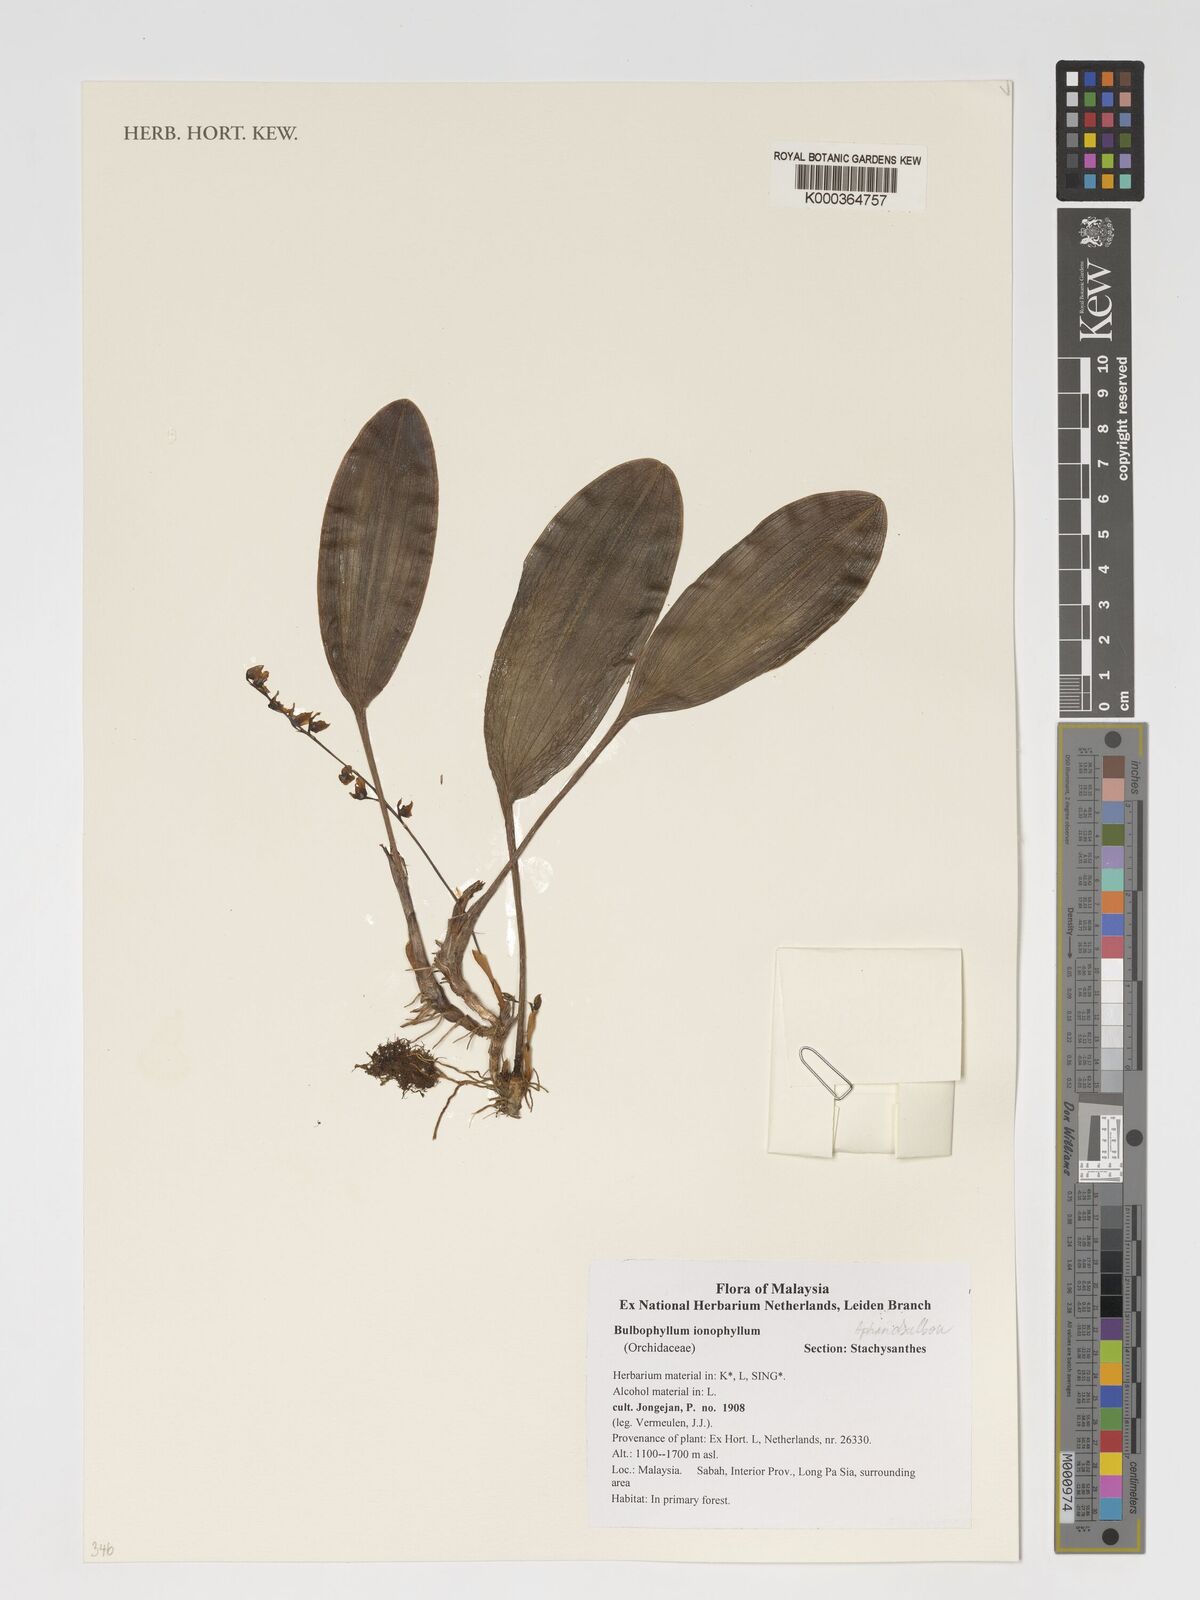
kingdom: Plantae
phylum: Tracheophyta
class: Liliopsida
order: Asparagales
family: Orchidaceae
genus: Bulbophyllum
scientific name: Bulbophyllum ionophyllum
